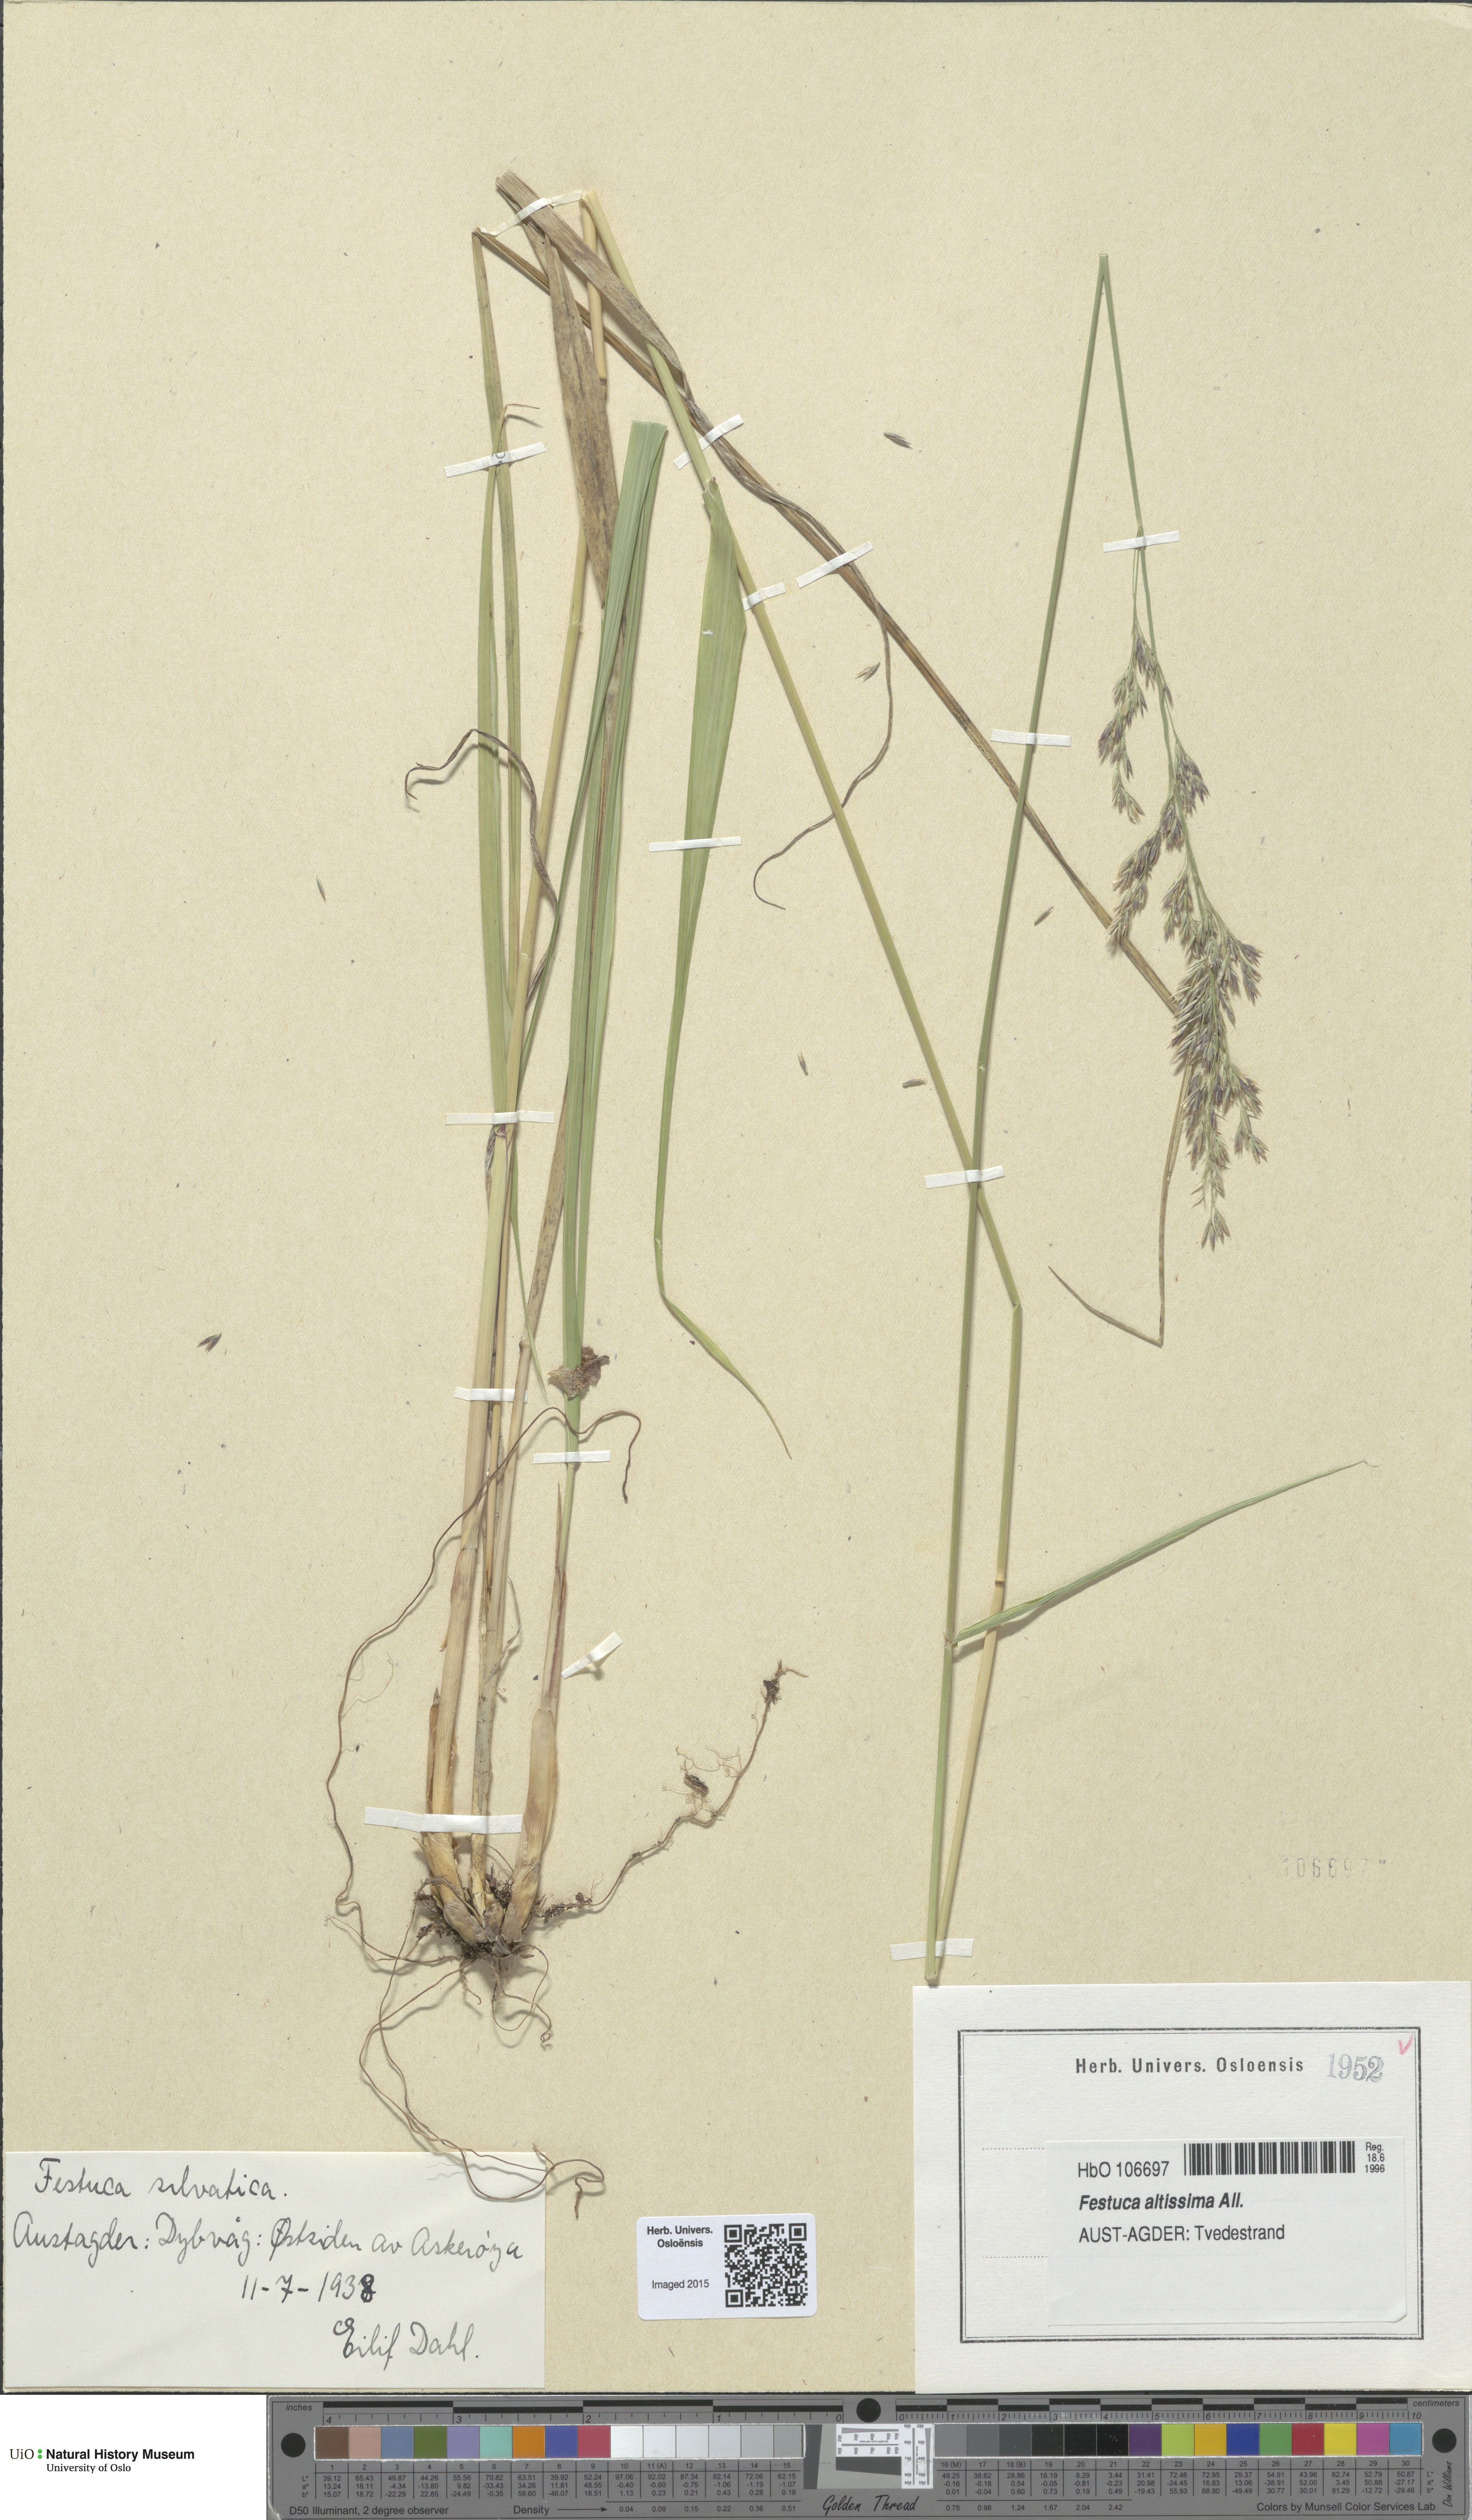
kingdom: Plantae
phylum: Tracheophyta
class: Liliopsida
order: Poales
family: Poaceae
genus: Festuca
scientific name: Festuca altissima
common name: Wood fescue
